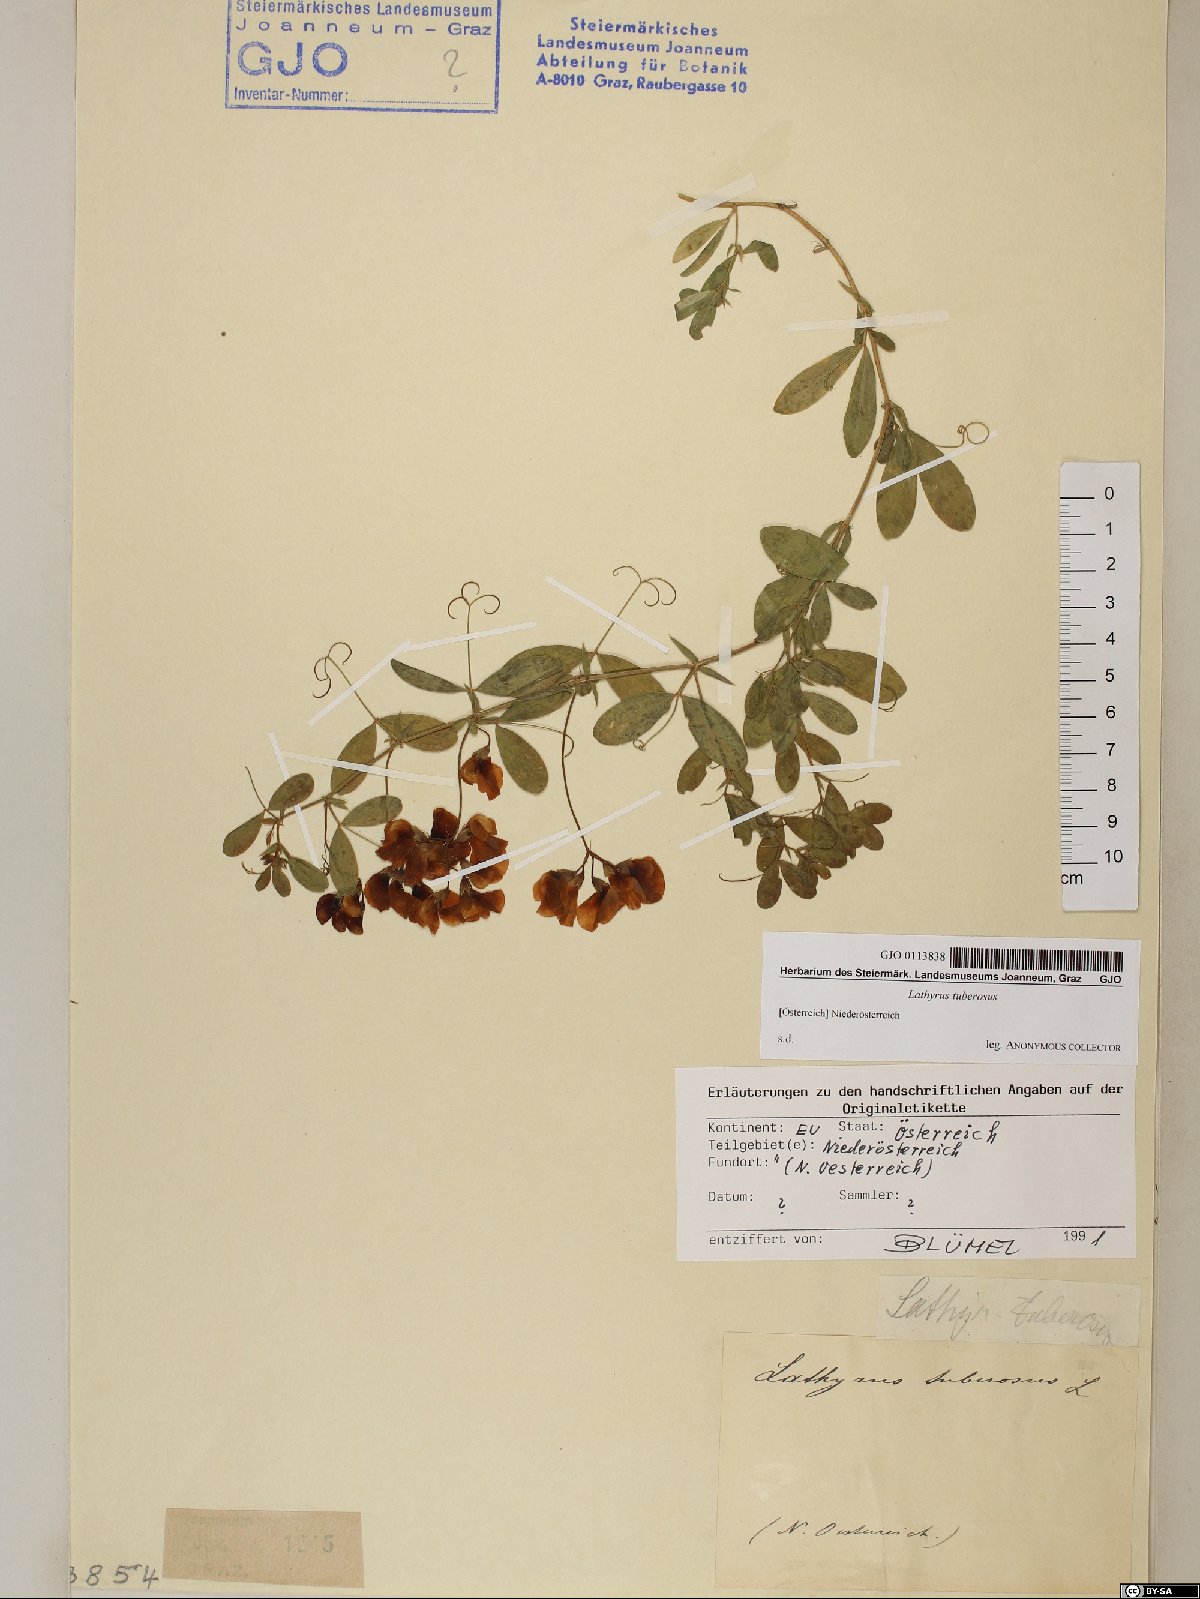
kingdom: Plantae
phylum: Tracheophyta
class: Magnoliopsida
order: Fabales
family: Fabaceae
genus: Lathyrus
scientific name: Lathyrus tuberosus
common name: Tuberous pea
